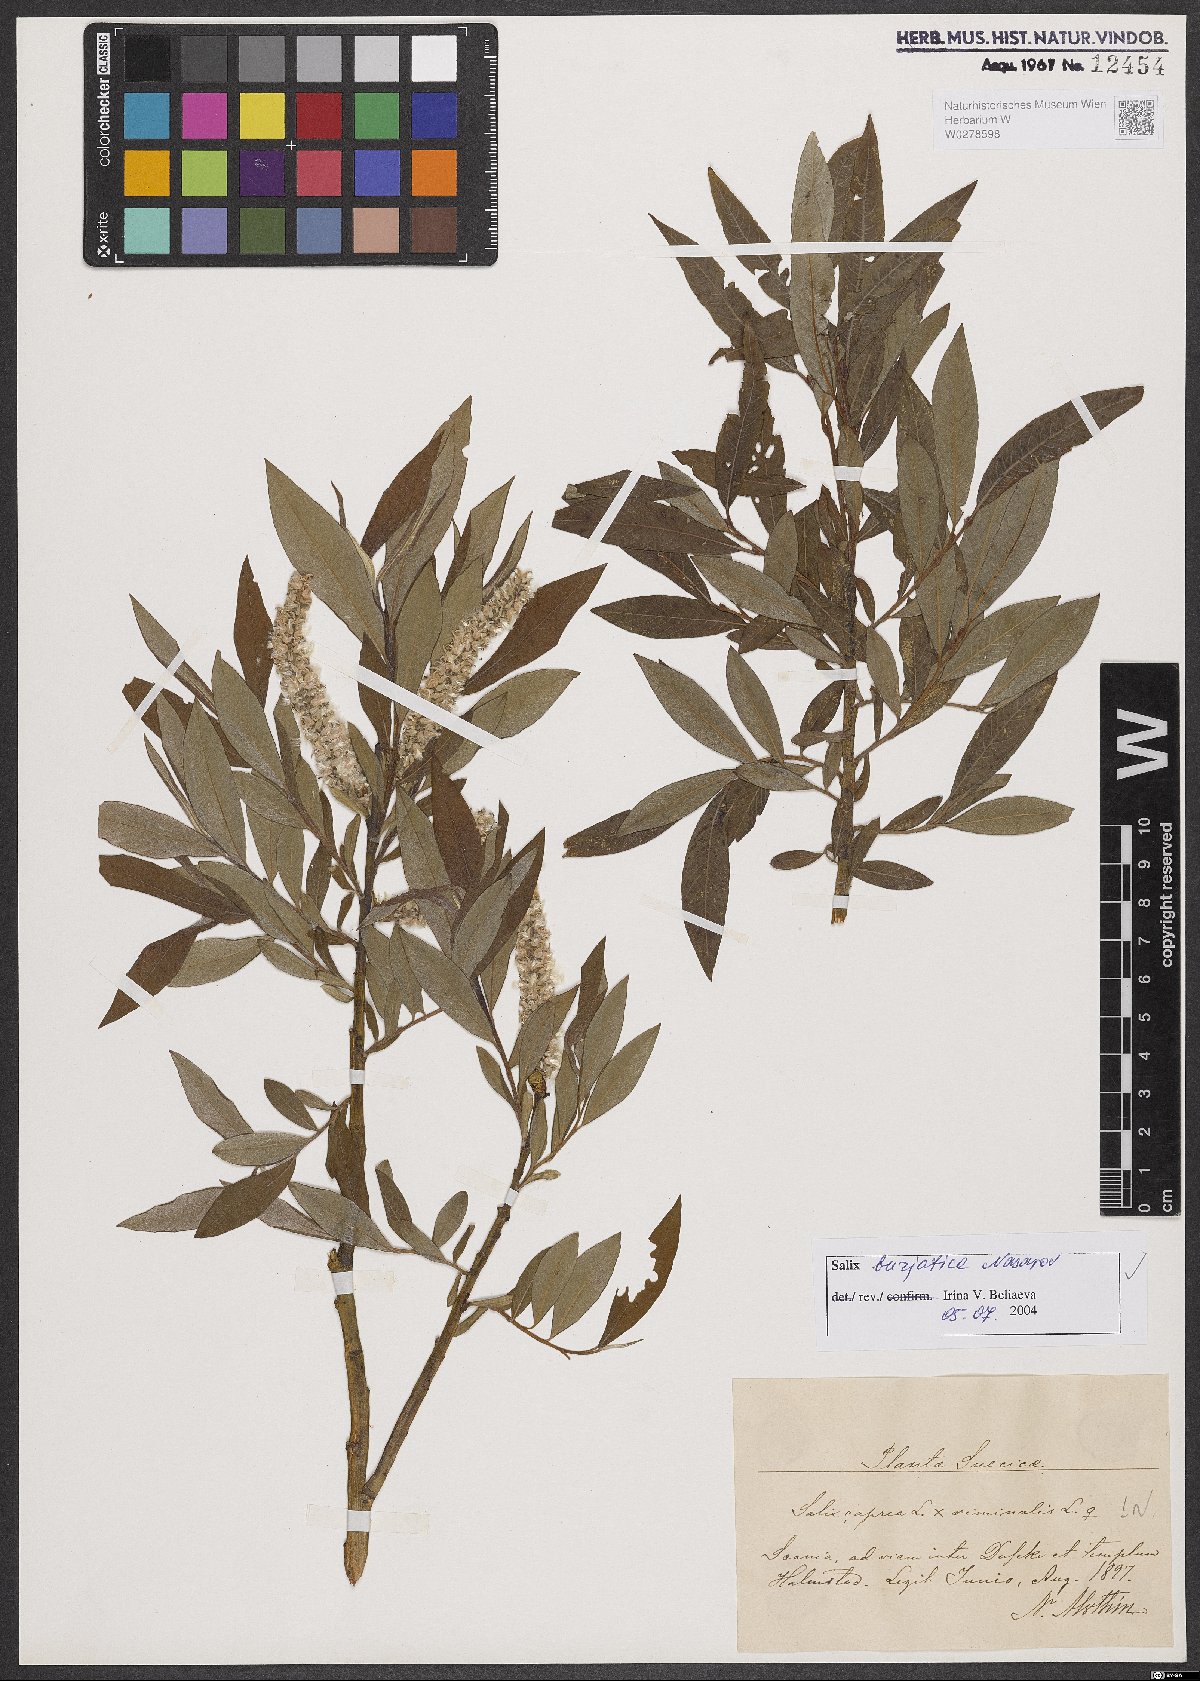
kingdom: Plantae
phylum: Tracheophyta
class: Magnoliopsida
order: Malpighiales
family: Salicaceae
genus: Salix
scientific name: Salix gmelinii
